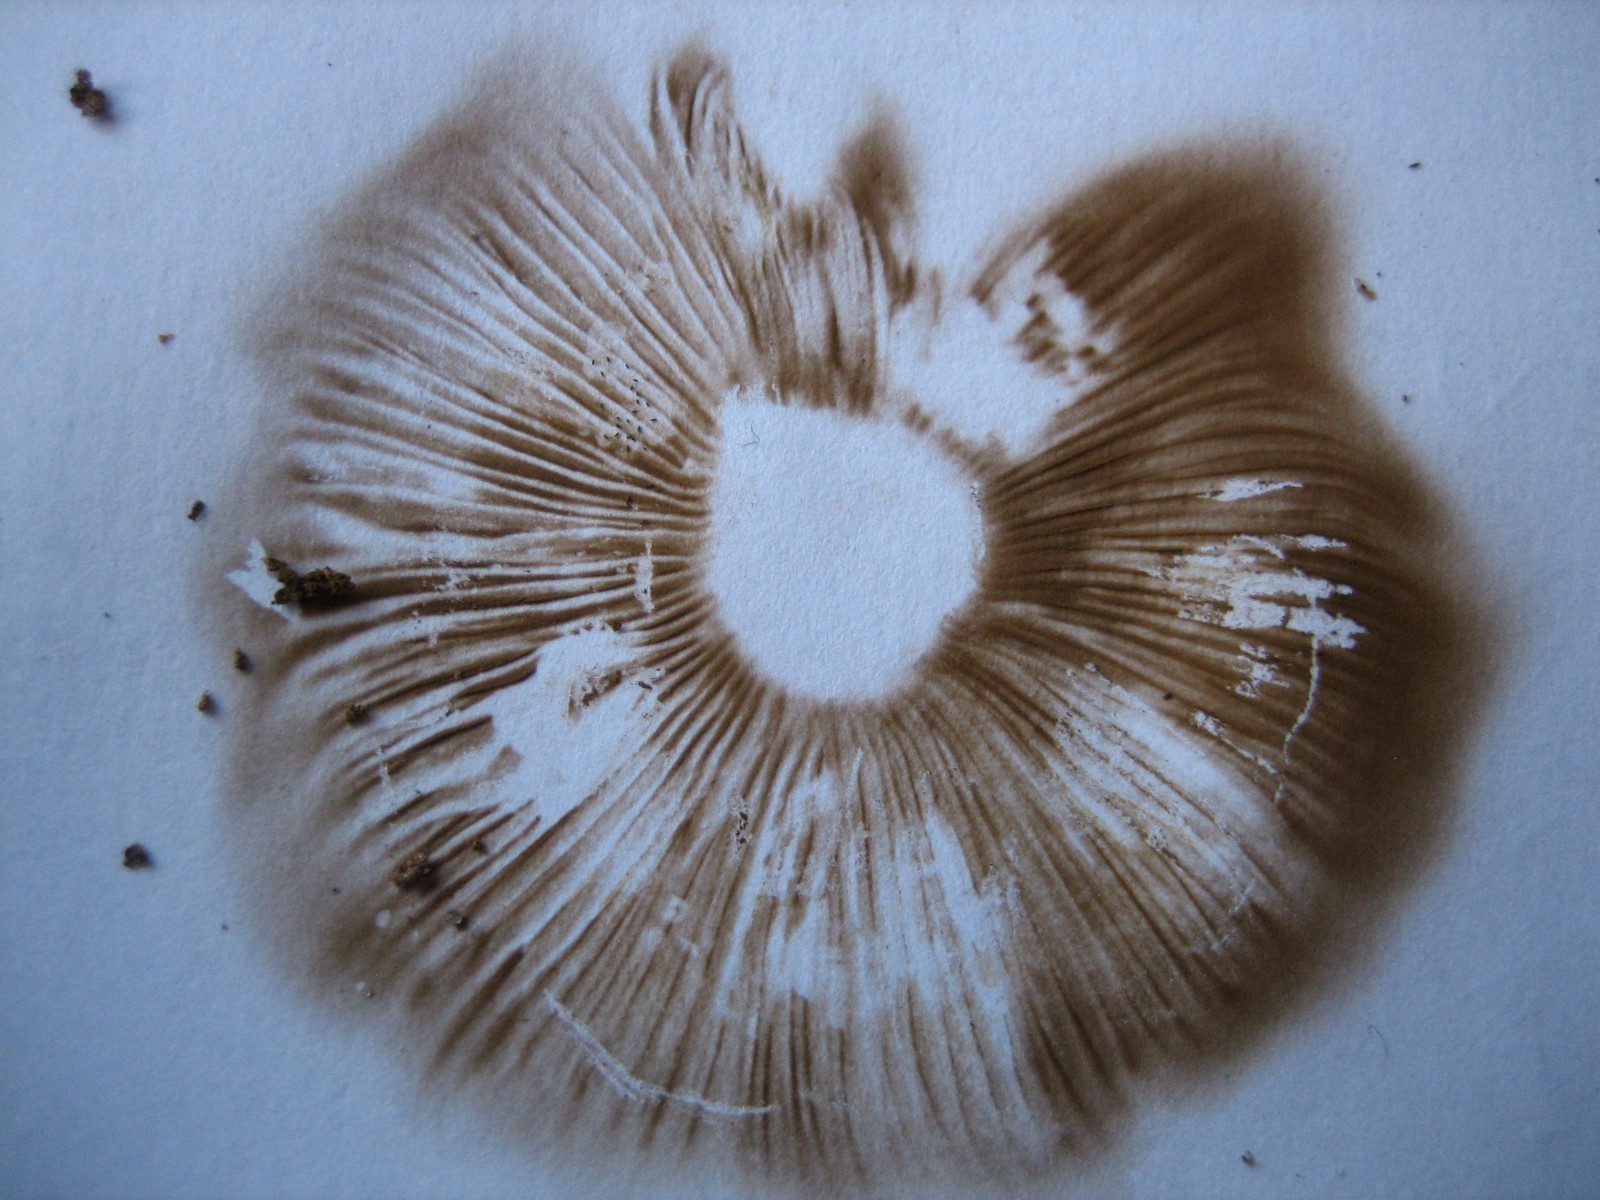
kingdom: Fungi
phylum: Basidiomycota
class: Agaricomycetes
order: Agaricales
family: Inocybaceae
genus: Inocybe
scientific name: Inocybe
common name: trævlhat
